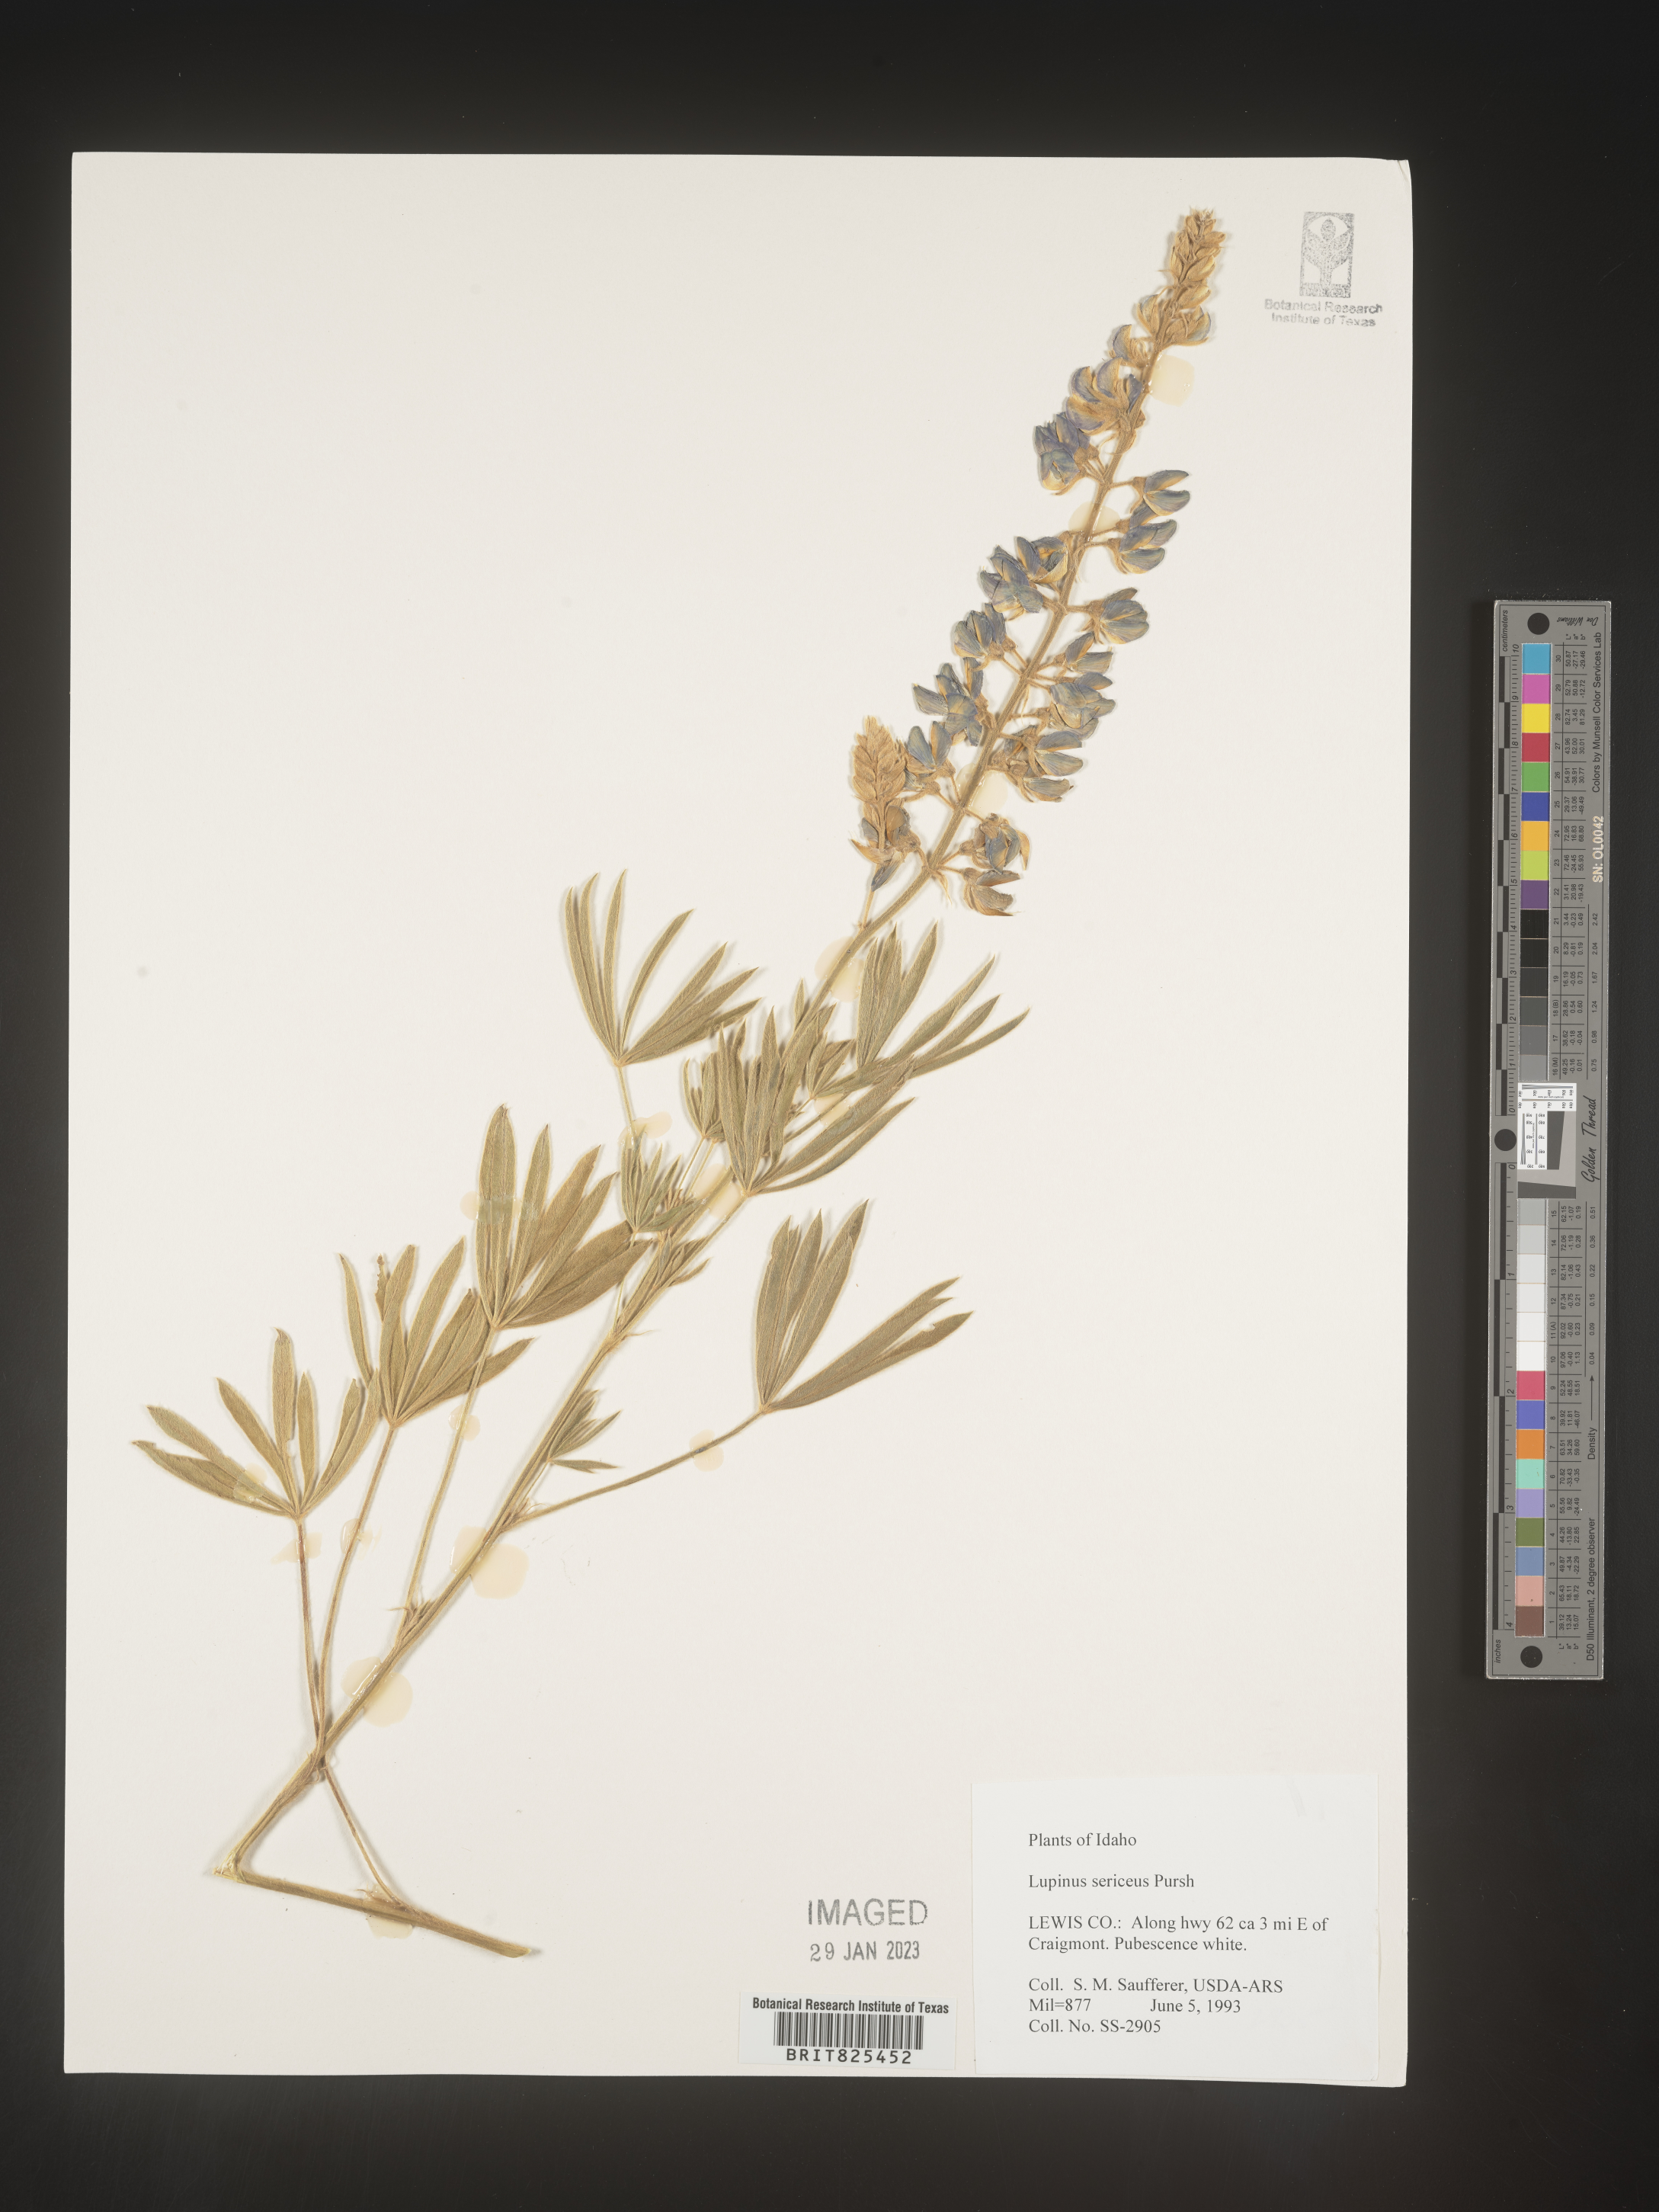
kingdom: Plantae
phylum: Tracheophyta
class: Magnoliopsida
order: Fabales
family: Fabaceae
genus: Lupinus
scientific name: Lupinus sericeus
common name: Silky lupine
